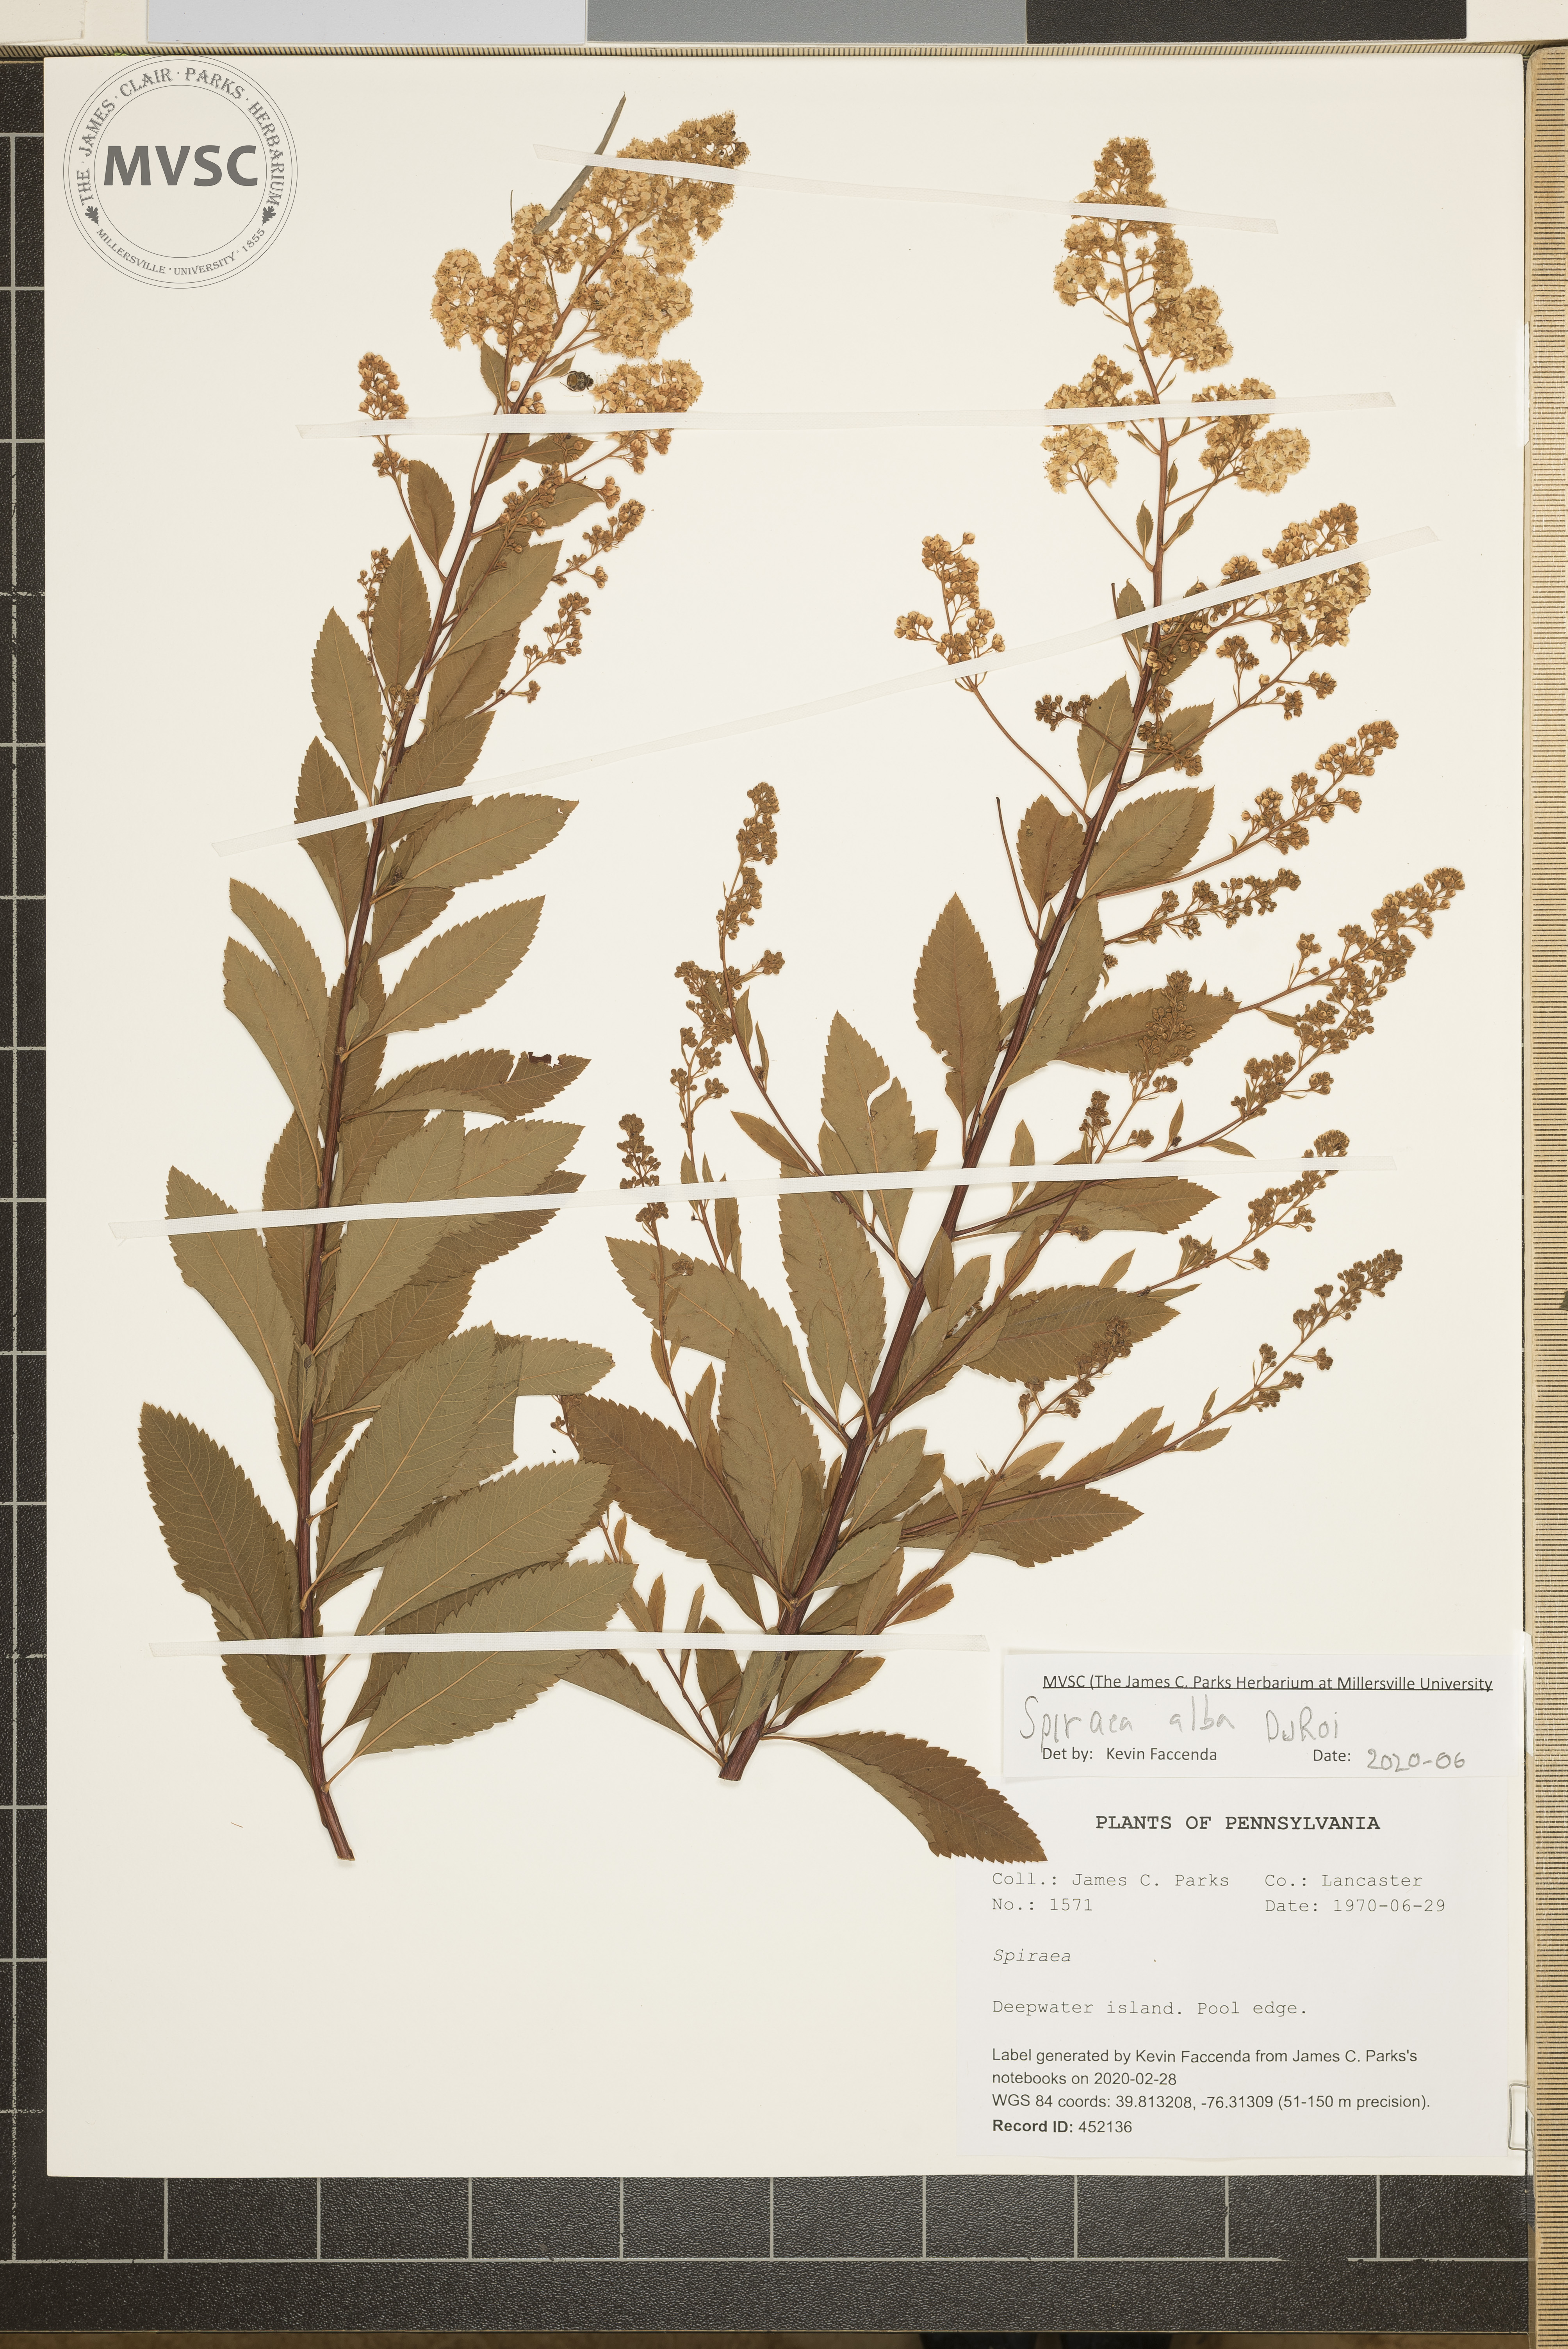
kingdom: Plantae
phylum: Tracheophyta
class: Magnoliopsida
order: Rosales
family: Rosaceae
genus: Spiraea
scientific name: Spiraea alba
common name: Pale bridewort
